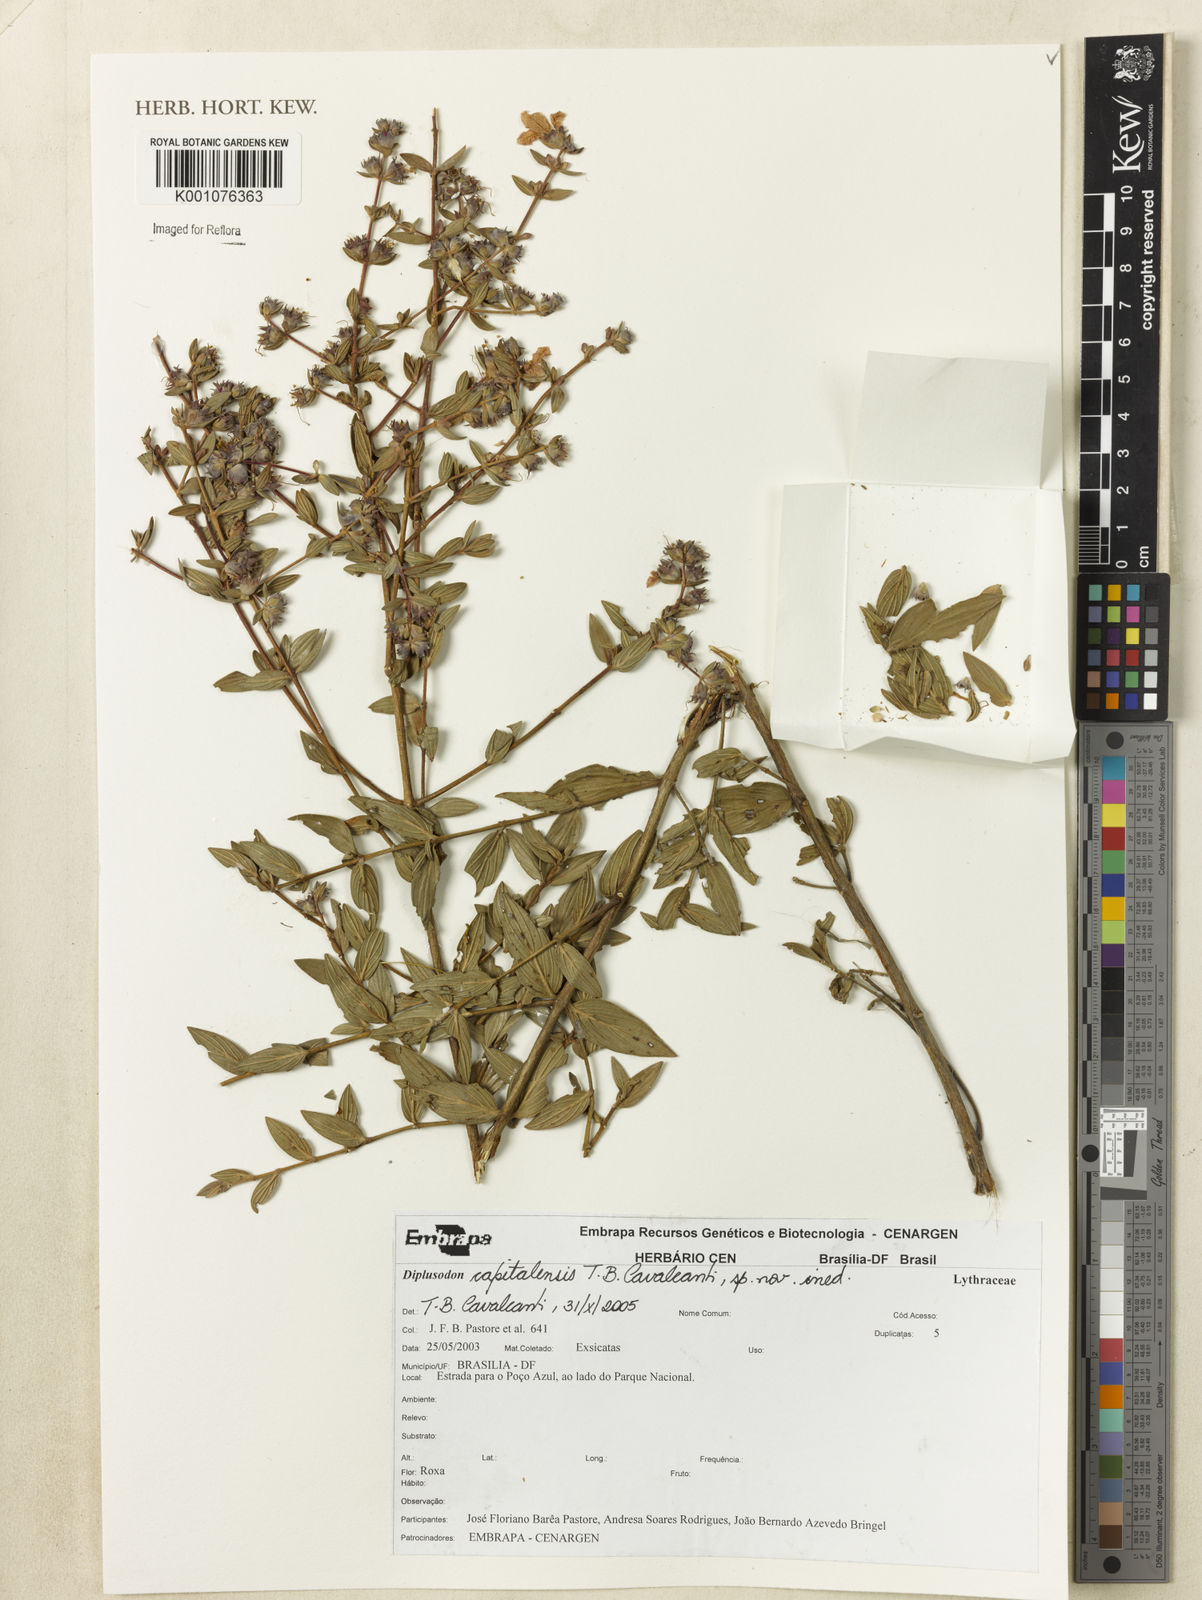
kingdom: Plantae
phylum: Tracheophyta
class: Magnoliopsida
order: Myrtales
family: Lythraceae
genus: Diplusodon
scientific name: Diplusodon capitalensis
